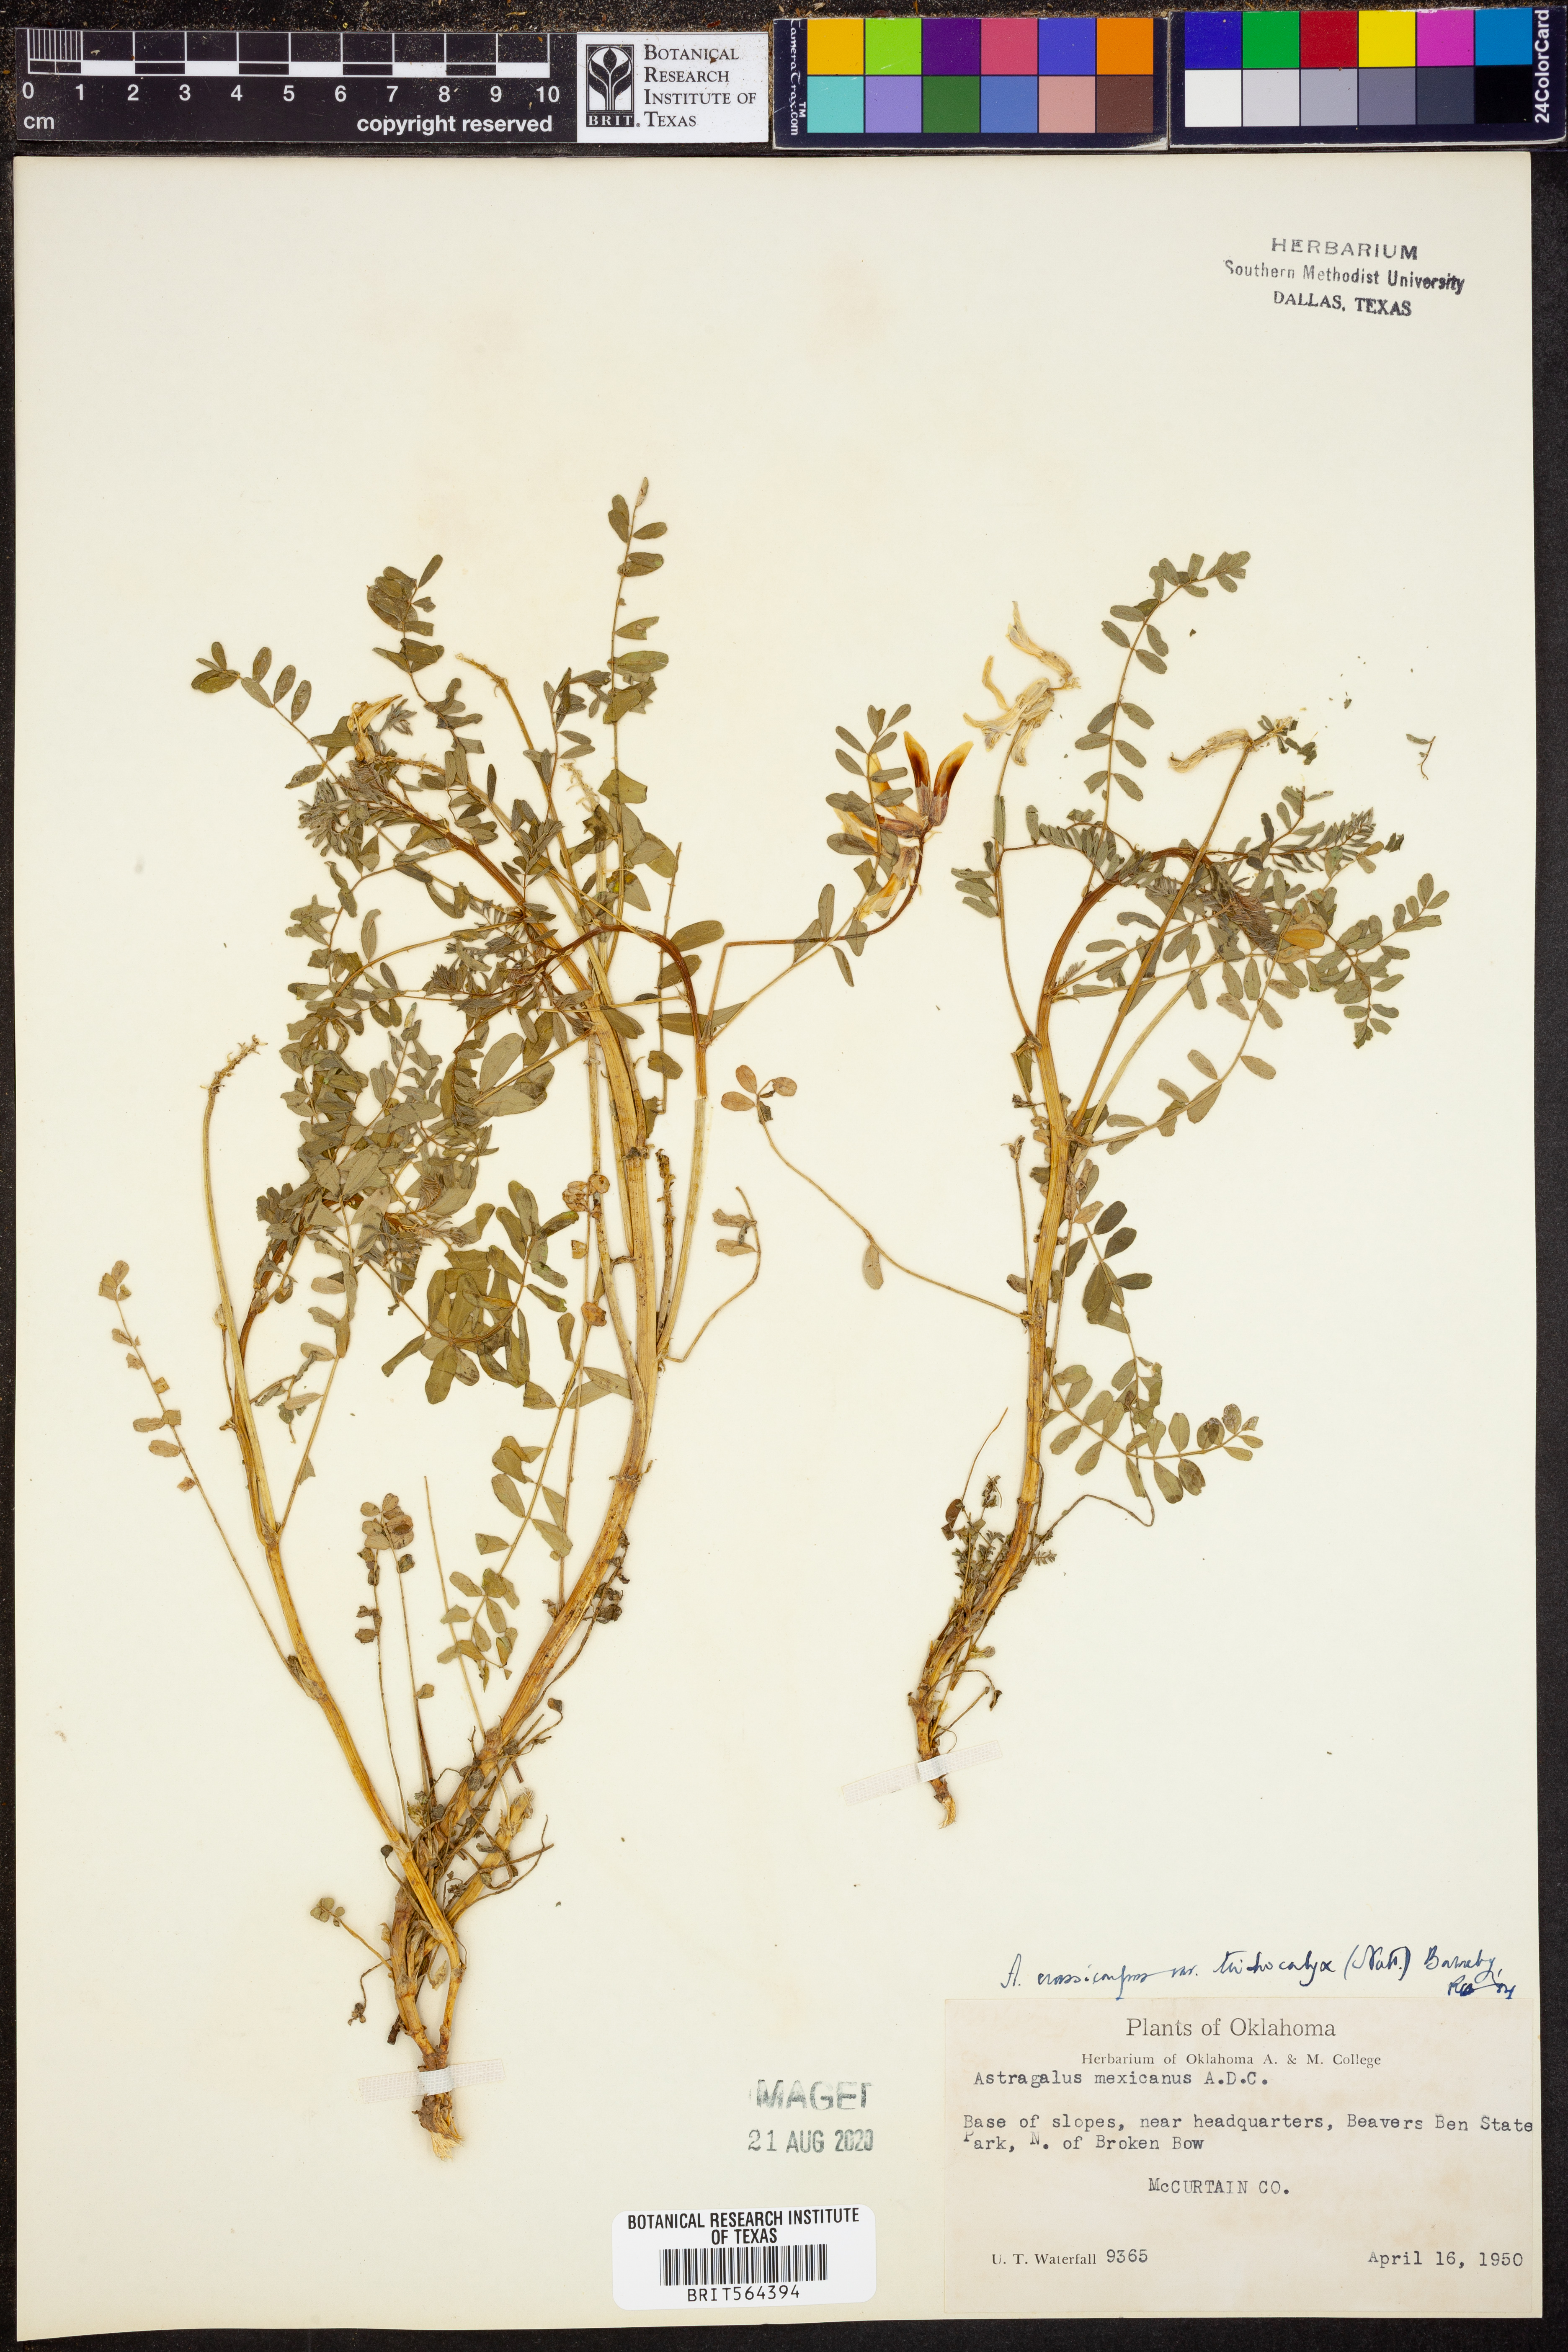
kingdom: Plantae
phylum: Tracheophyta
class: Magnoliopsida
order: Fabales
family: Fabaceae
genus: Astragalus
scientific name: Astragalus crassicarpus
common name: Ground-plum milk-vetch
